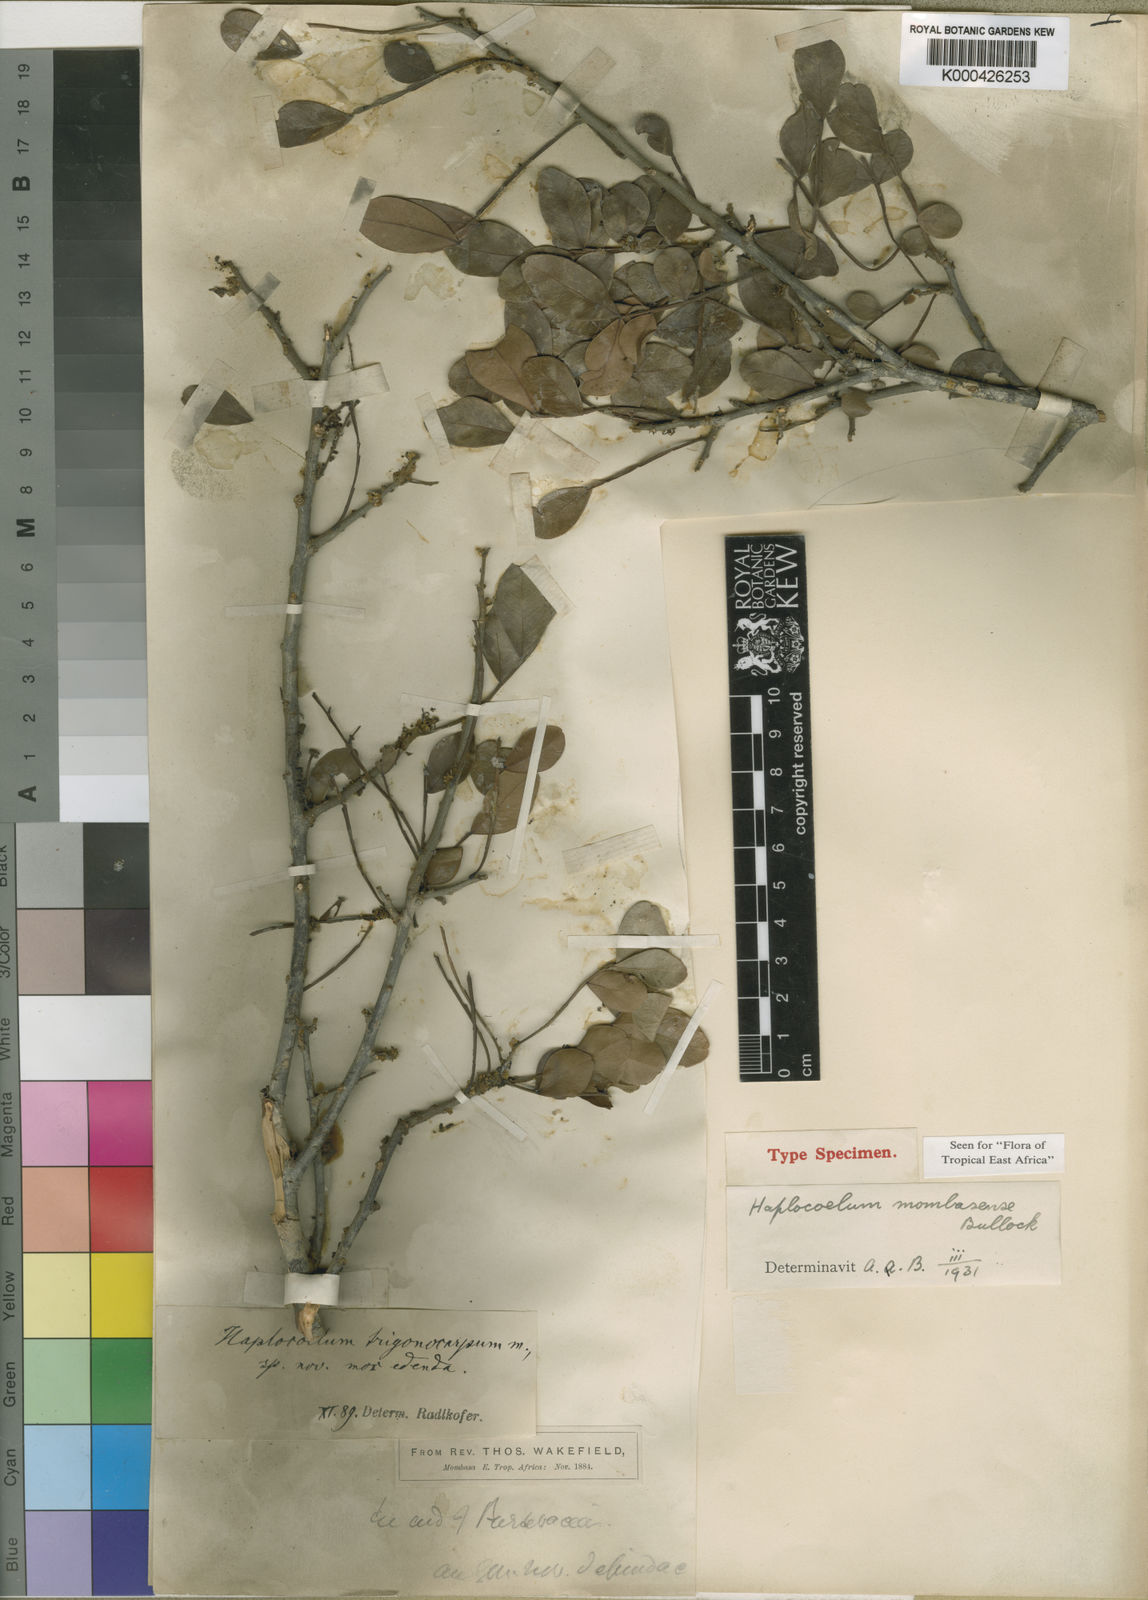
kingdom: Plantae
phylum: Tracheophyta
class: Magnoliopsida
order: Sapindales
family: Sapindaceae
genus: Haplocoelum
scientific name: Haplocoelum foliolosum
